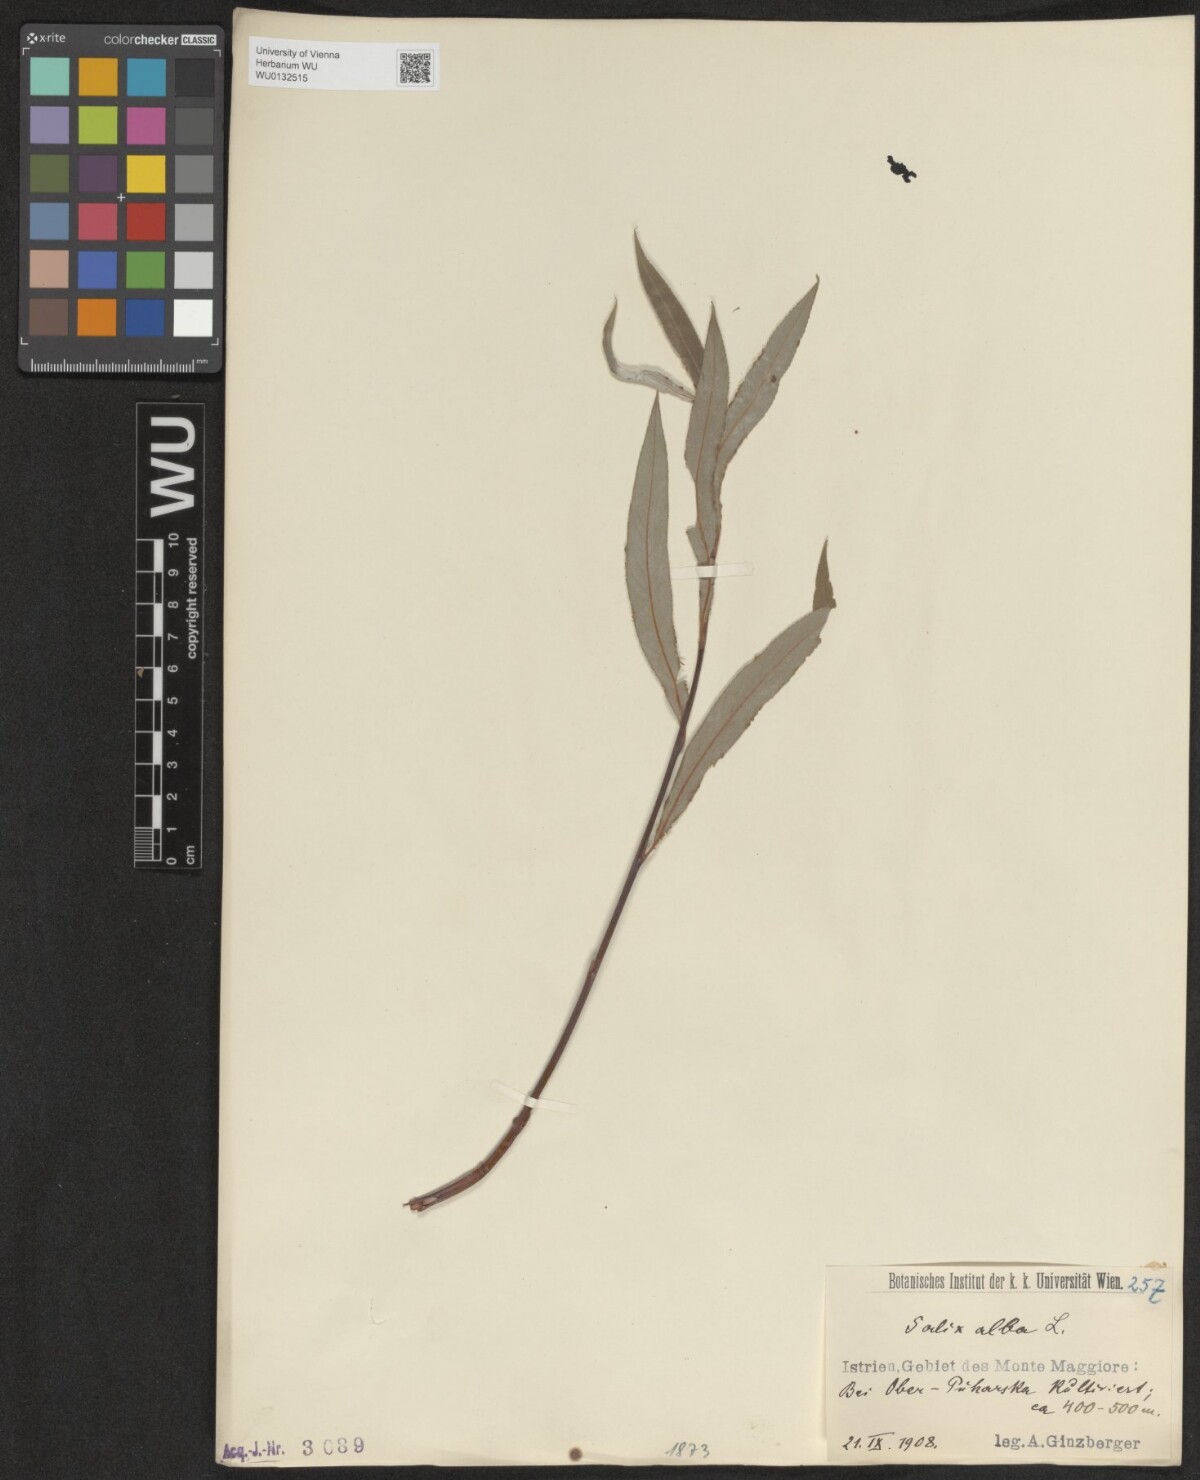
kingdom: Plantae
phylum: Tracheophyta
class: Magnoliopsida
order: Malpighiales
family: Salicaceae
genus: Salix
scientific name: Salix alba
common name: White willow
